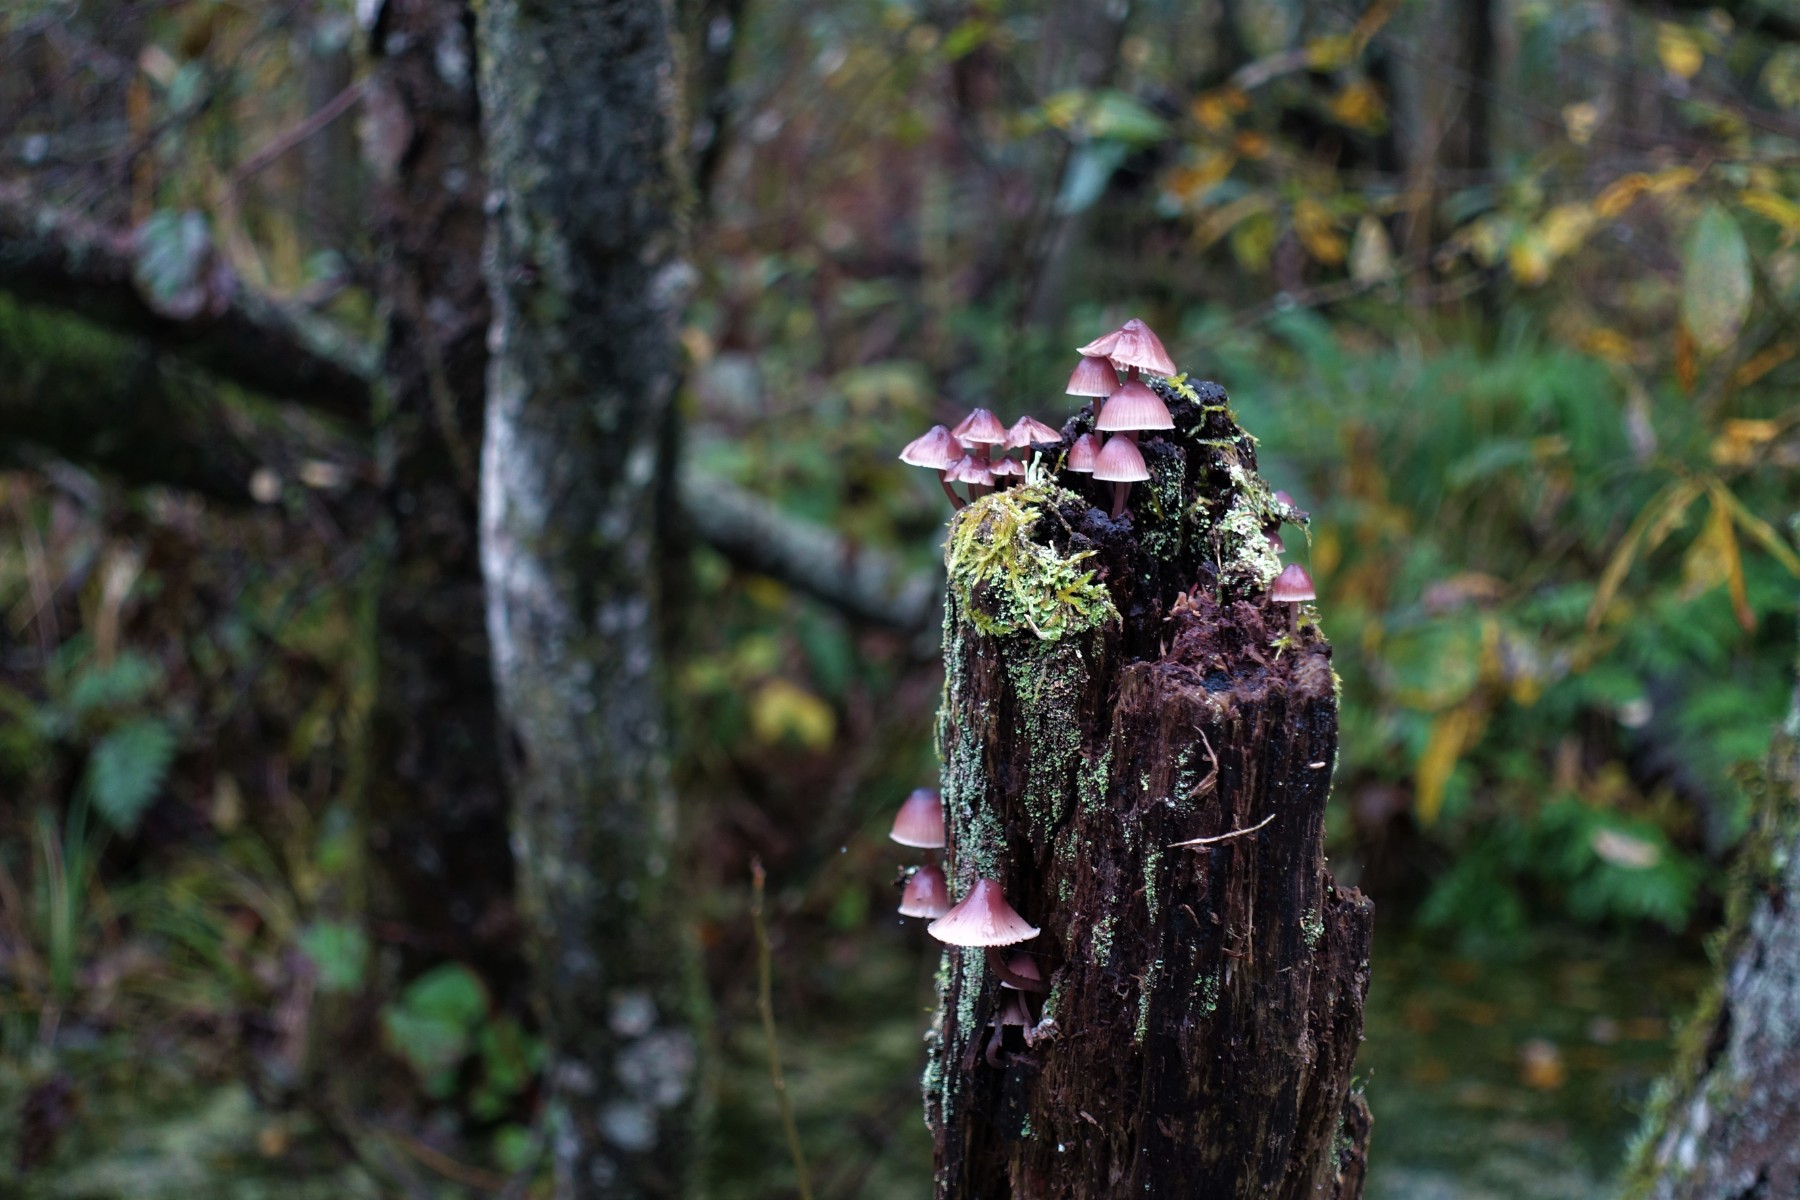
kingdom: Fungi
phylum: Basidiomycota
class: Agaricomycetes
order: Agaricales
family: Mycenaceae
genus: Mycena
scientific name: Mycena haematopus
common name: blødende huesvamp
